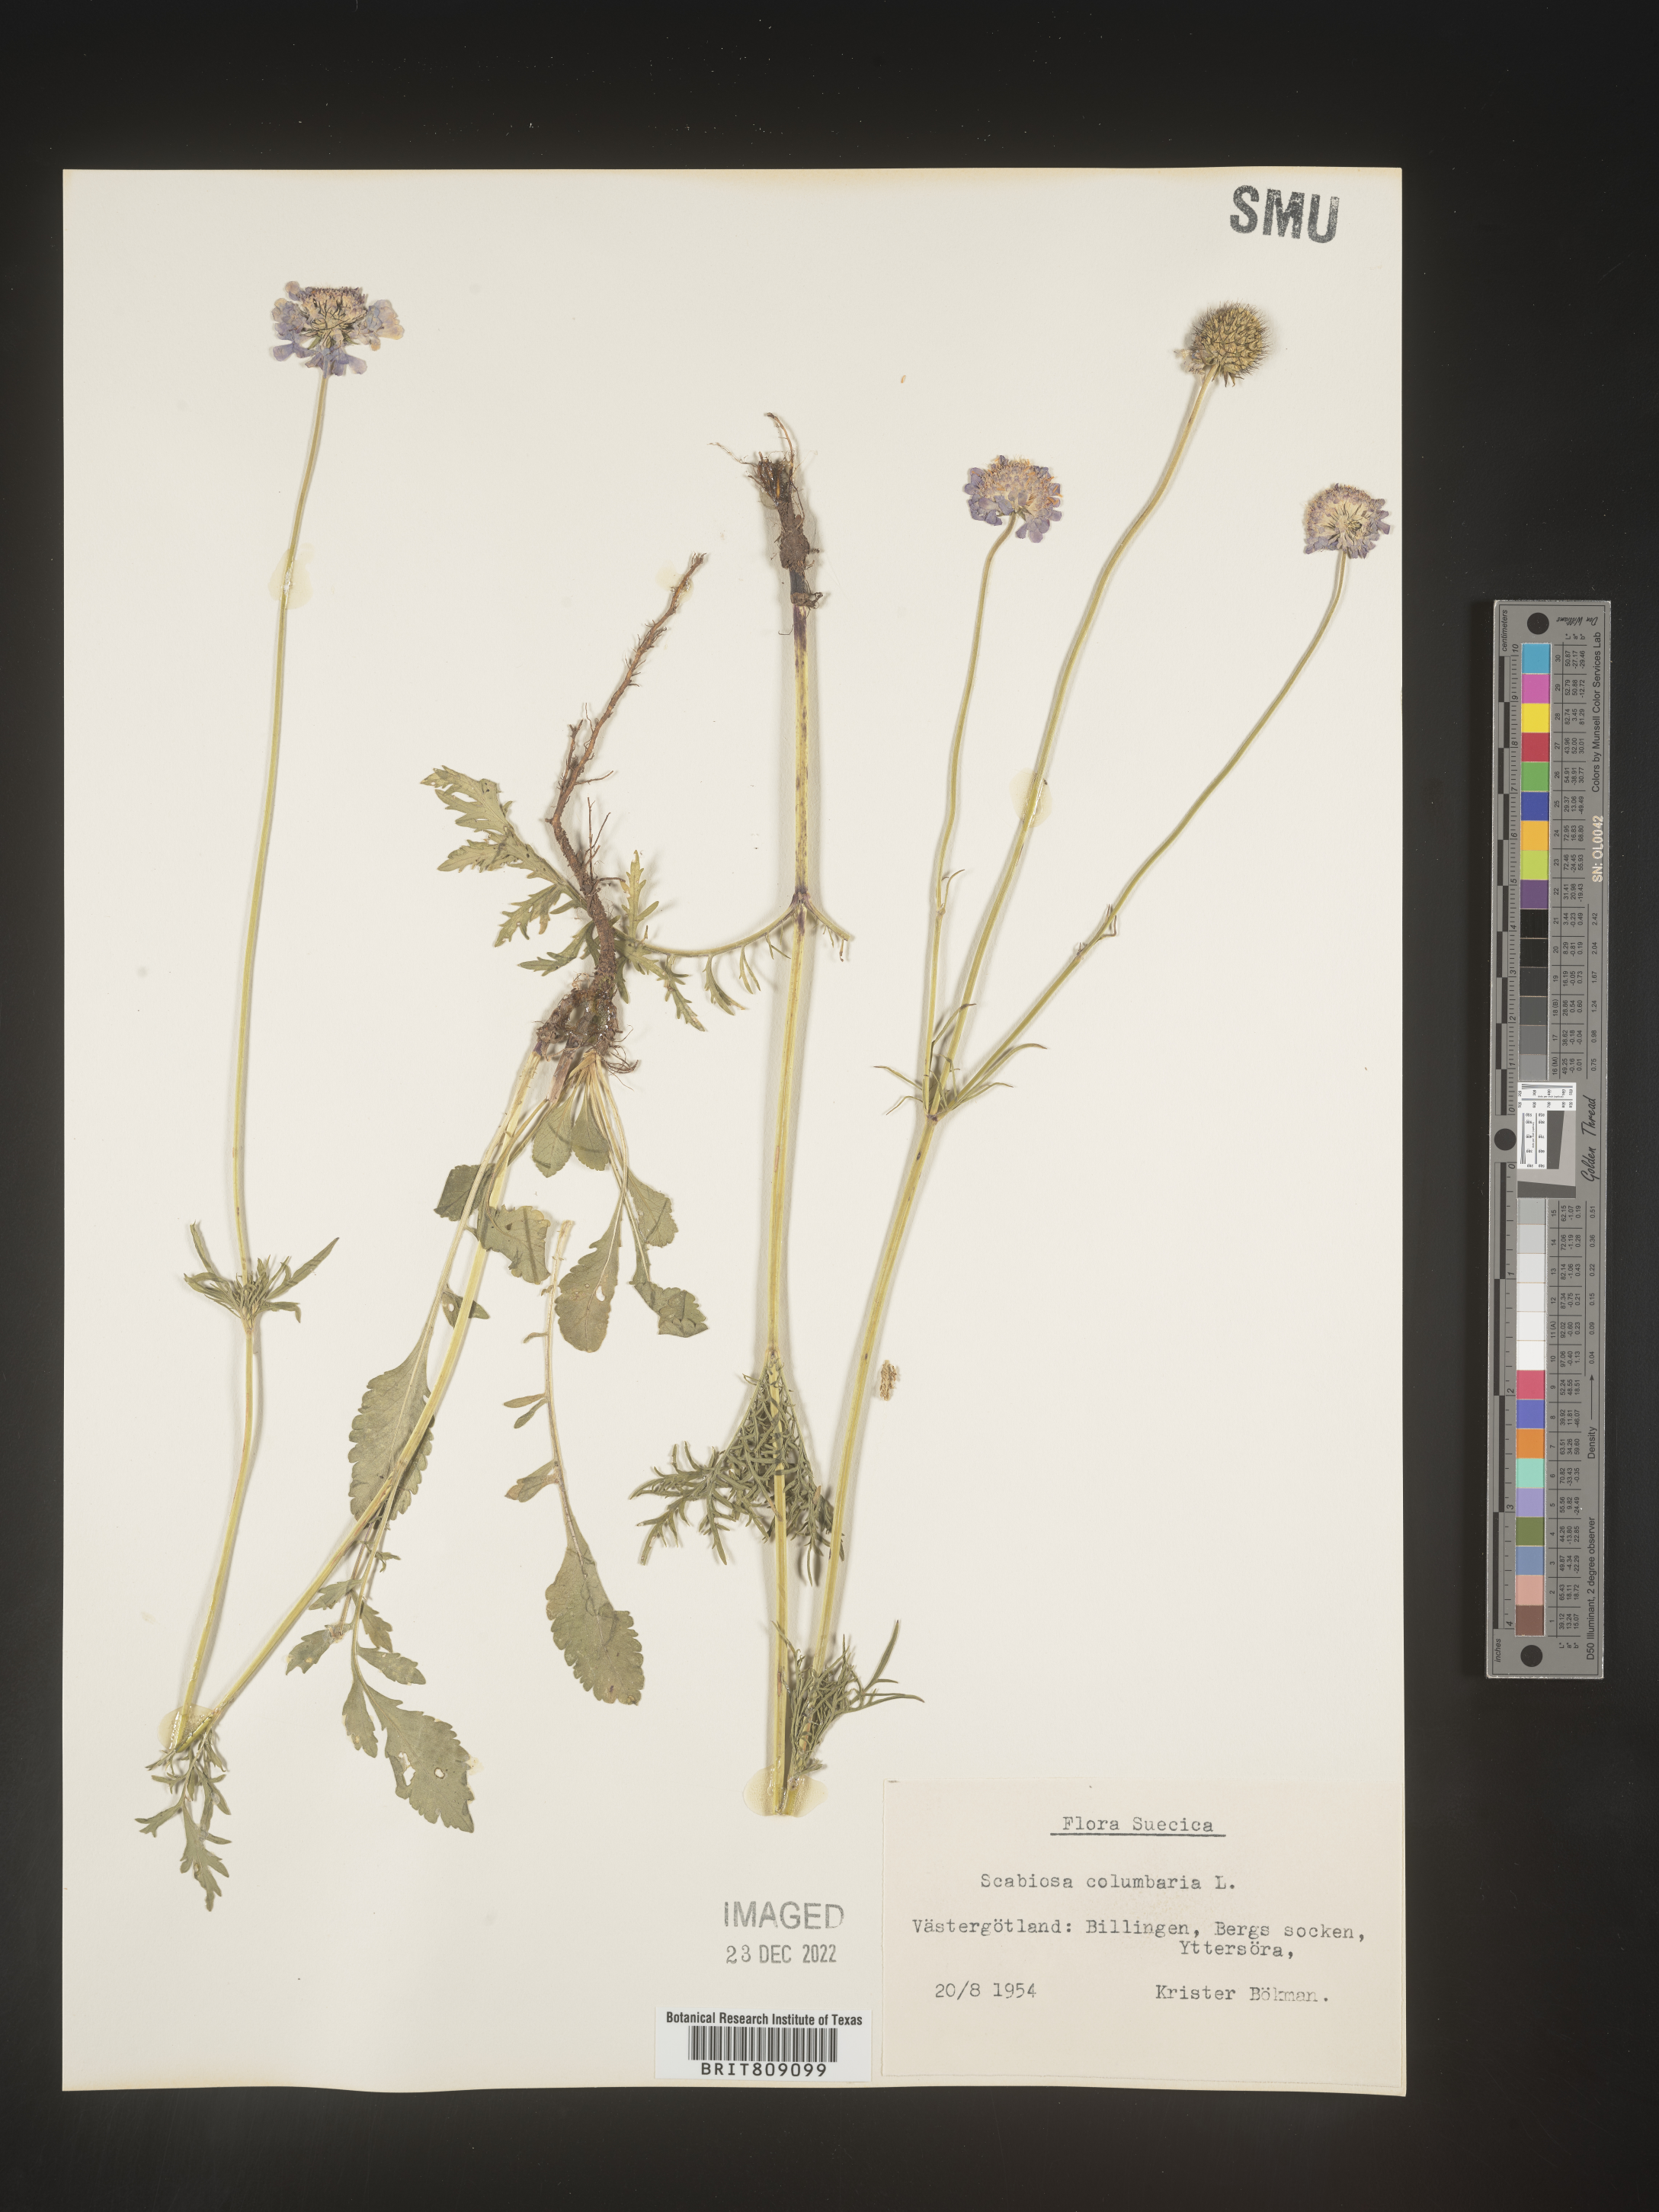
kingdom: Plantae
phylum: Tracheophyta
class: Magnoliopsida
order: Dipsacales
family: Caprifoliaceae
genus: Scabiosa
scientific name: Scabiosa
